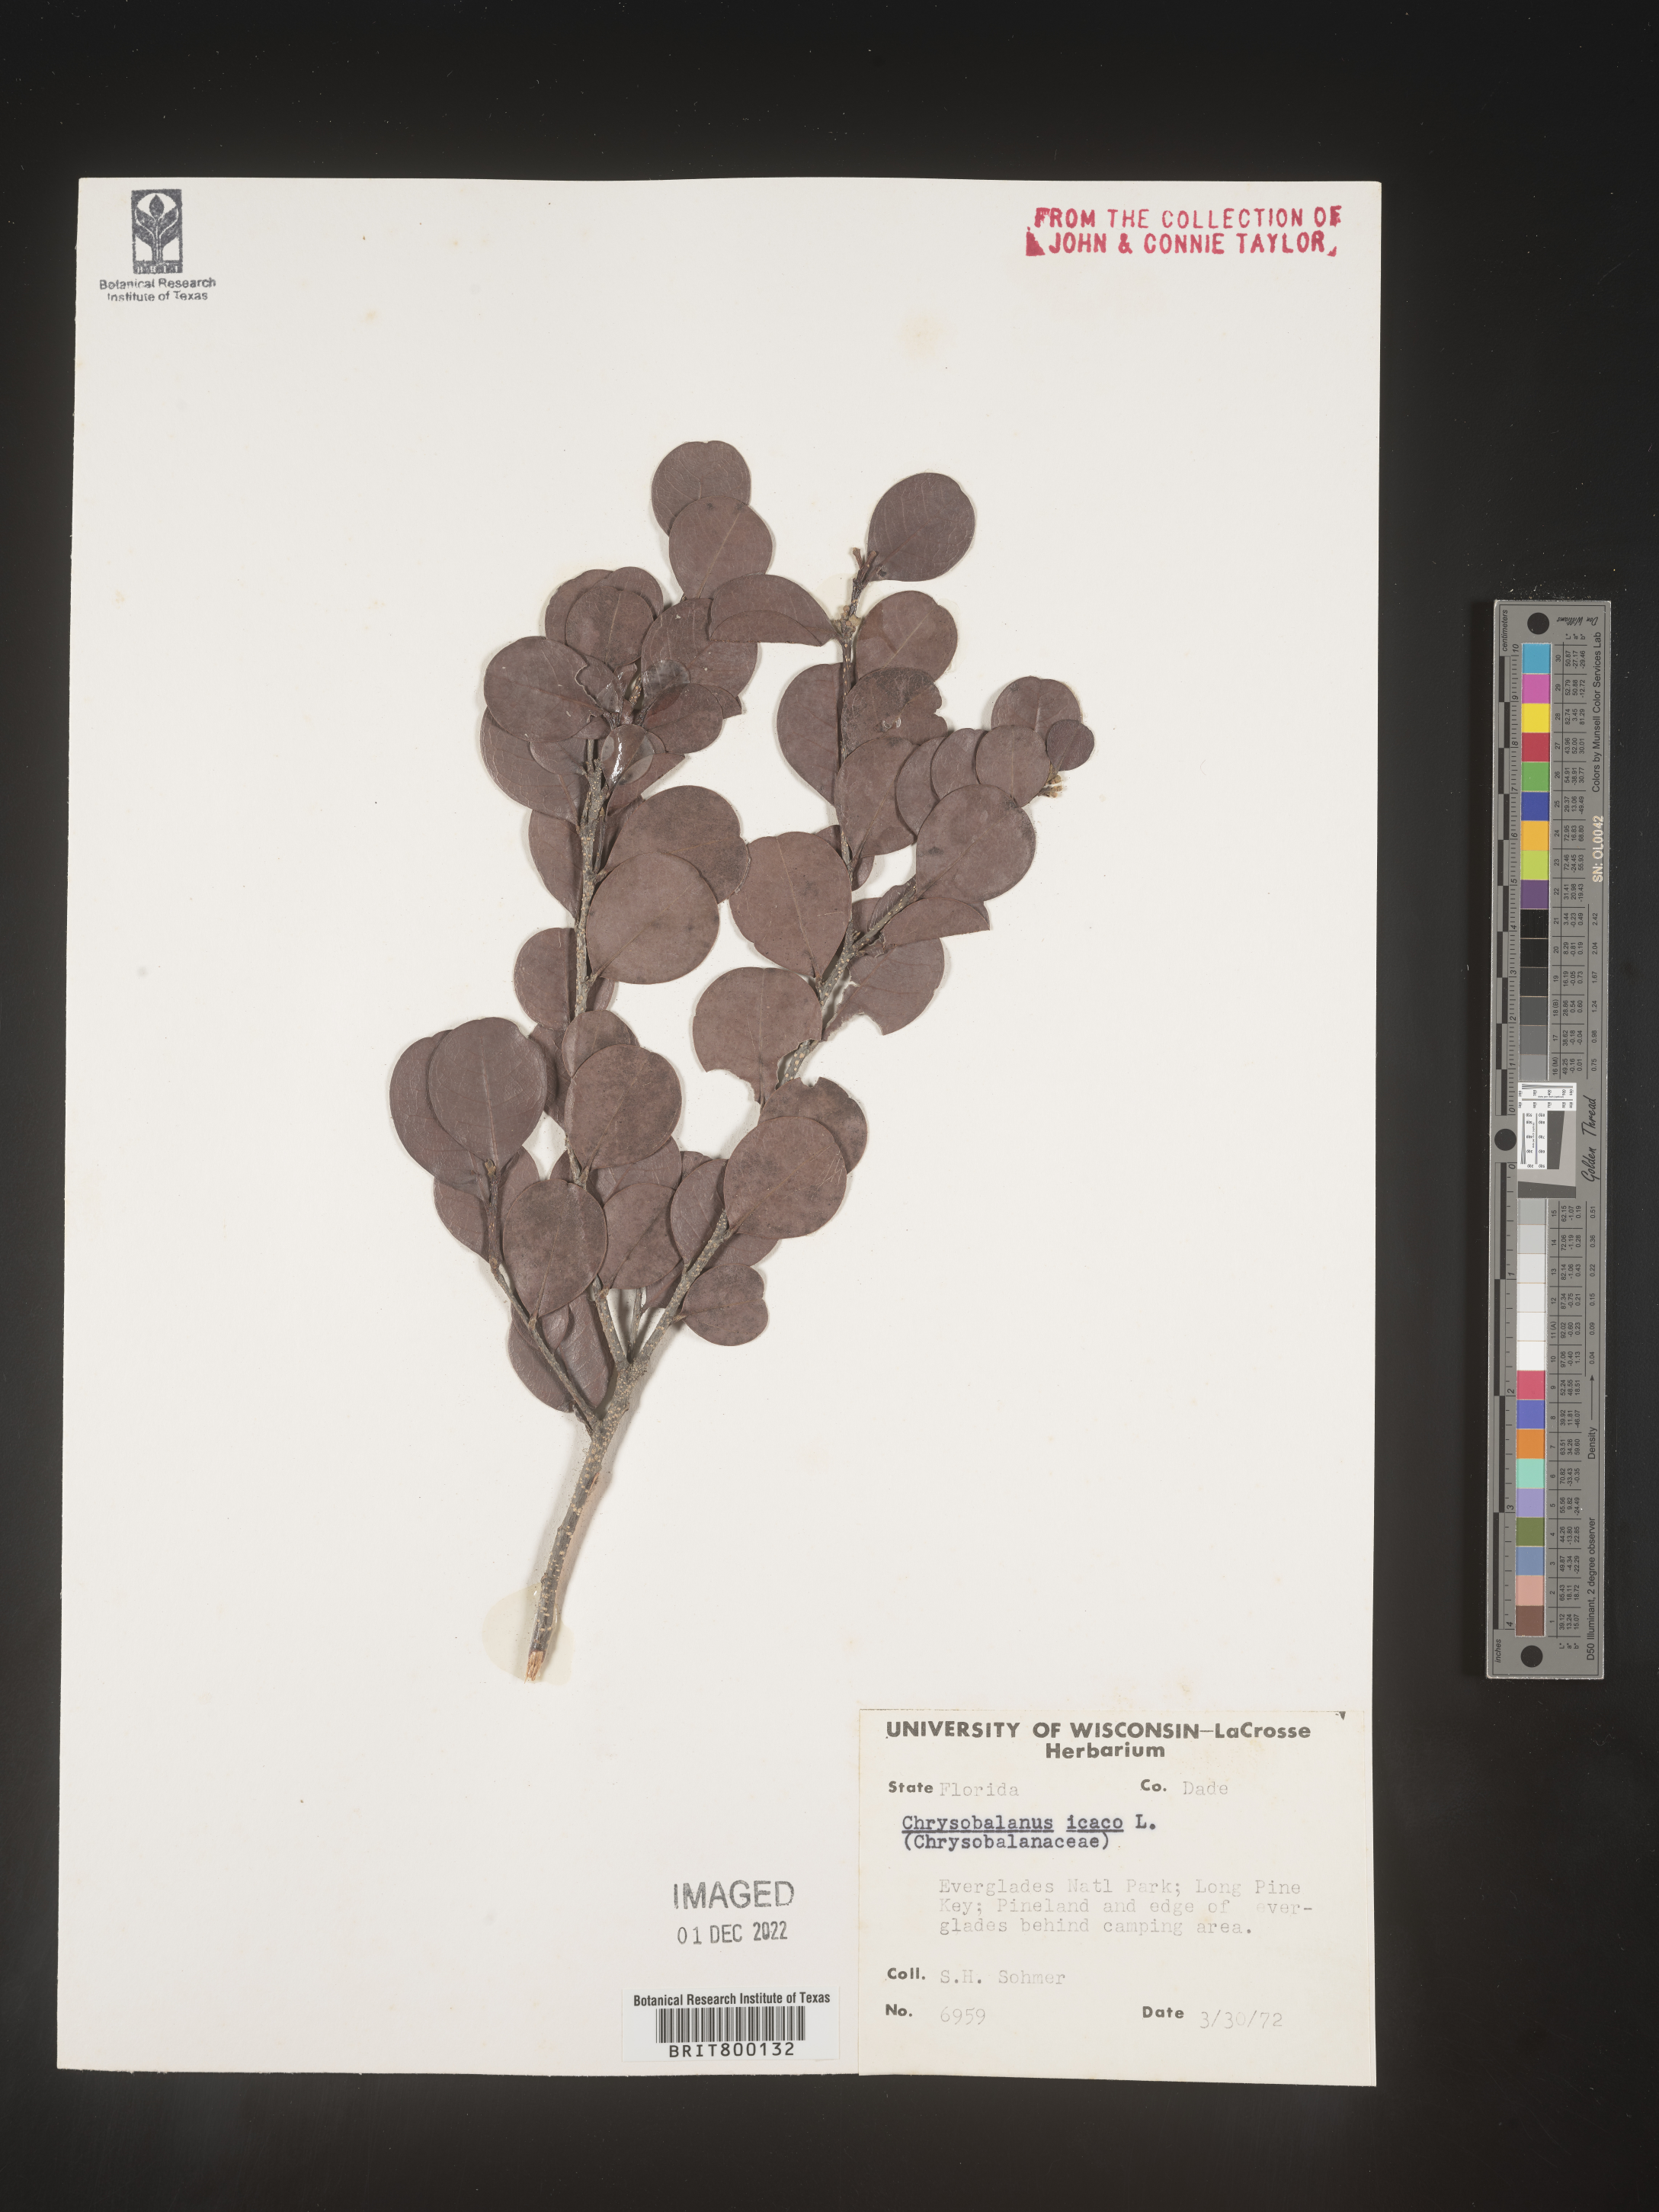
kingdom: Plantae
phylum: Tracheophyta
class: Magnoliopsida
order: Malpighiales
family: Chrysobalanaceae
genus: Chrysobalanus
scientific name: Chrysobalanus icaco
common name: Coco plum
